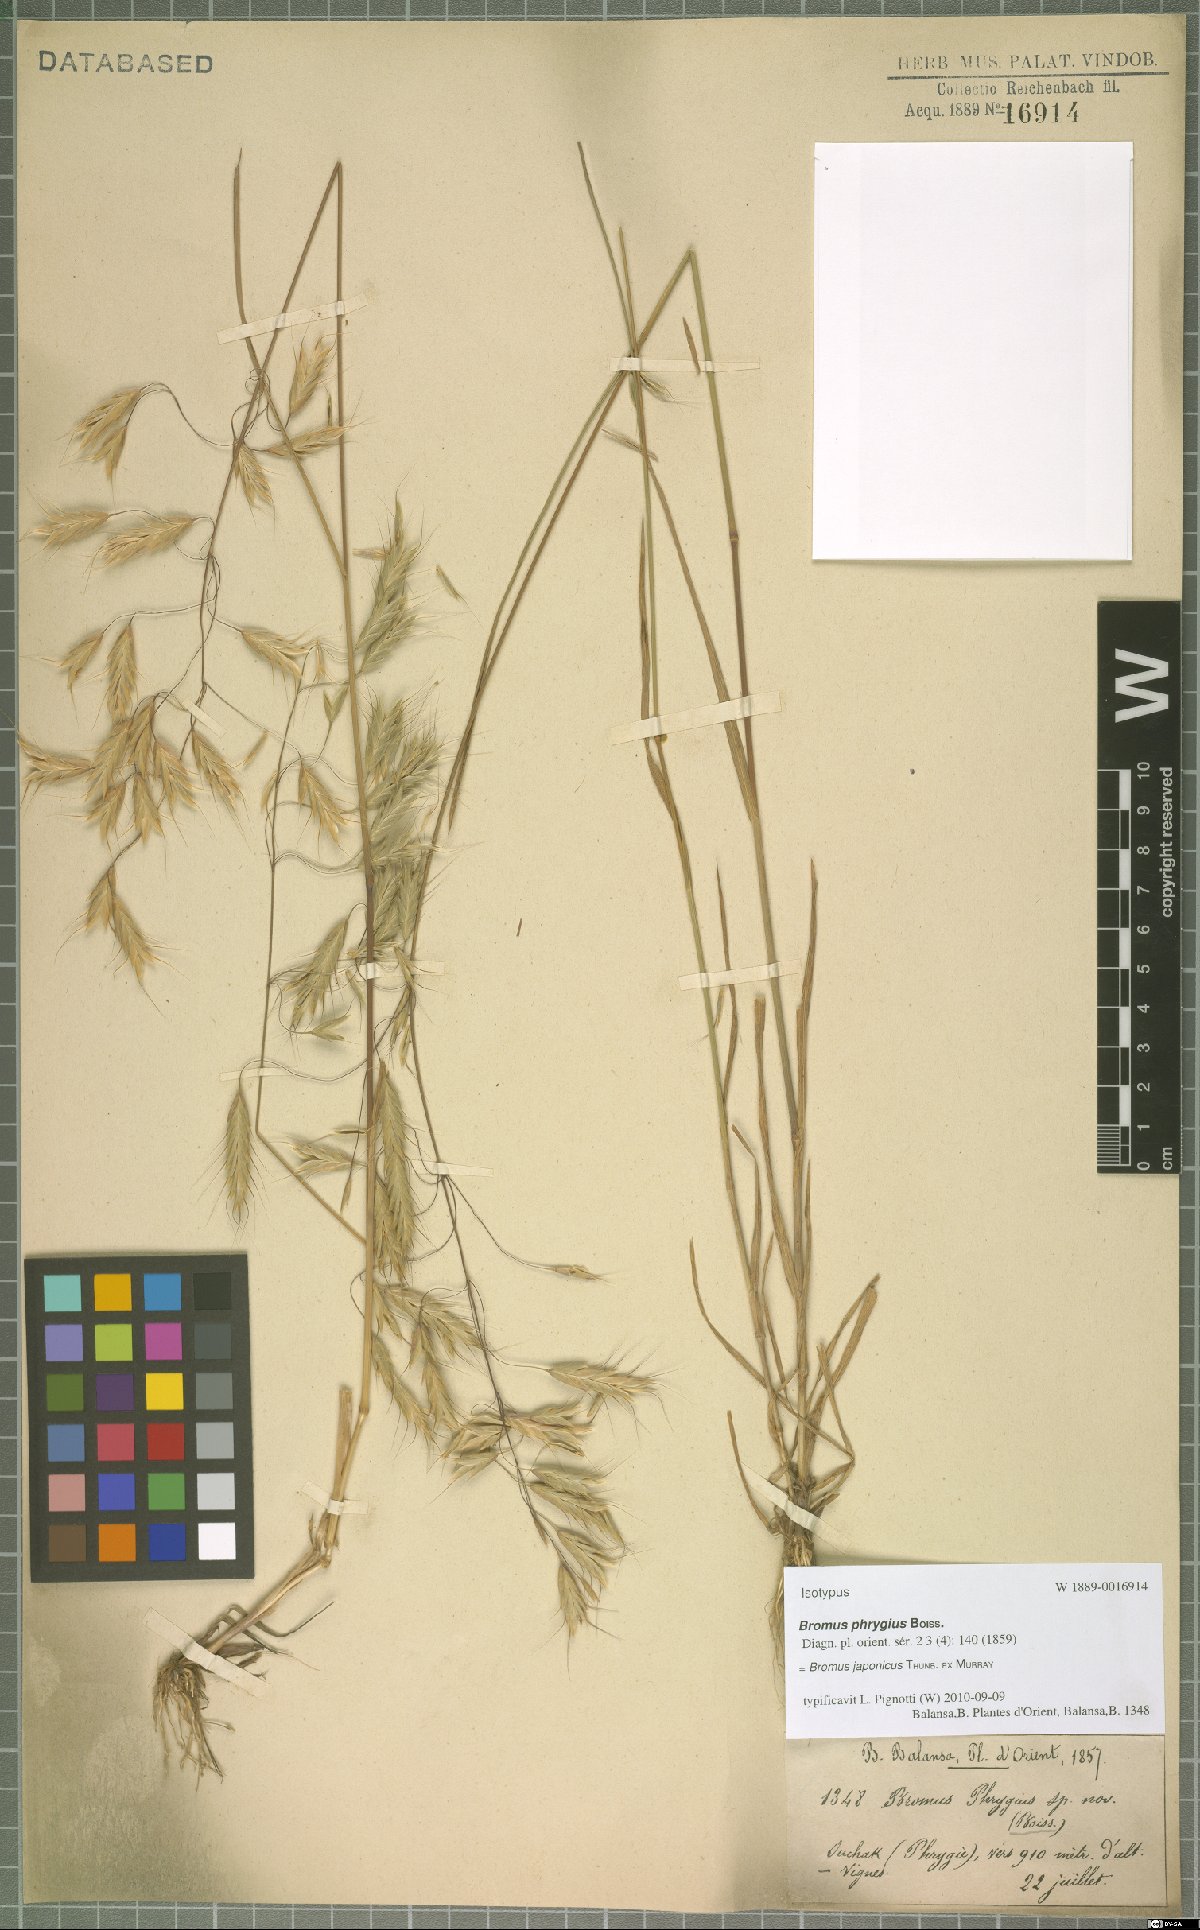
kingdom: Plantae
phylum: Tracheophyta
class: Liliopsida
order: Poales
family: Poaceae
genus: Bromus
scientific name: Bromus japonicus
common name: Japanese brome
